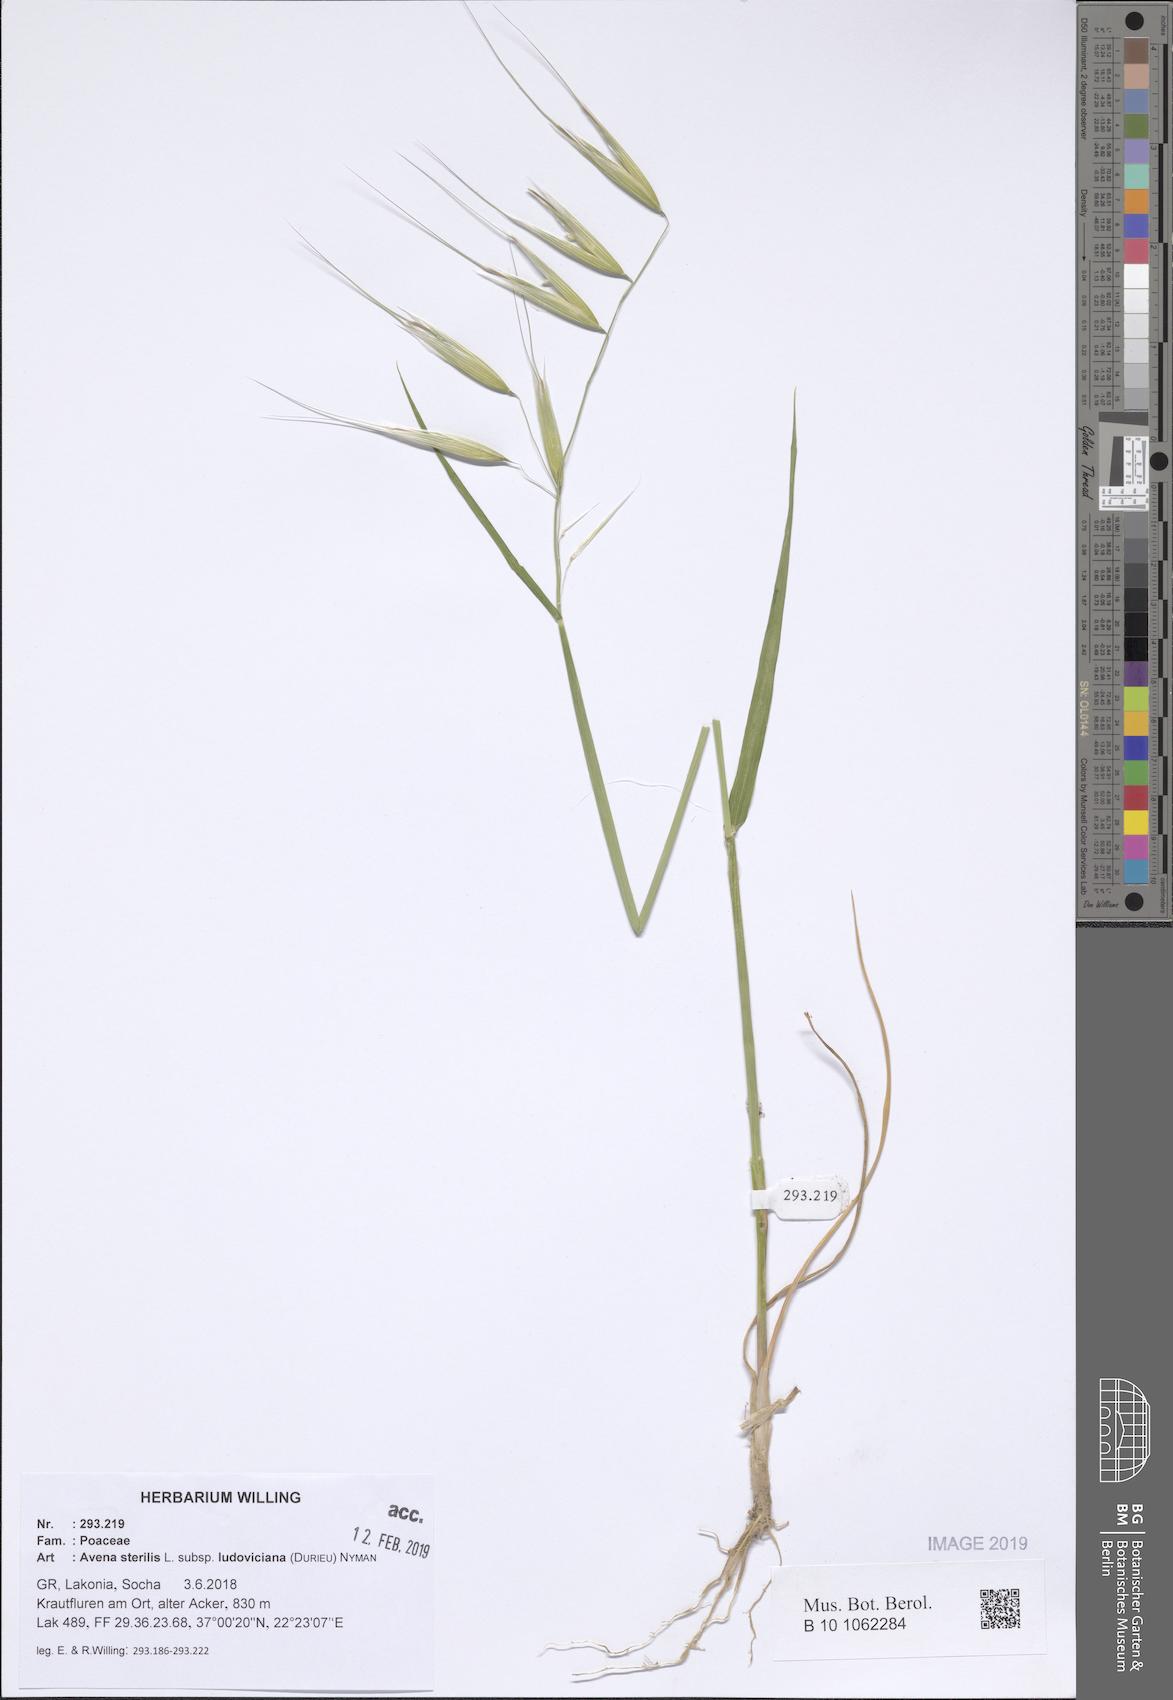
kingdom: Plantae
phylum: Tracheophyta
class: Liliopsida
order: Poales
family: Poaceae
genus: Avena
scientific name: Avena sterilis
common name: Animated oat
